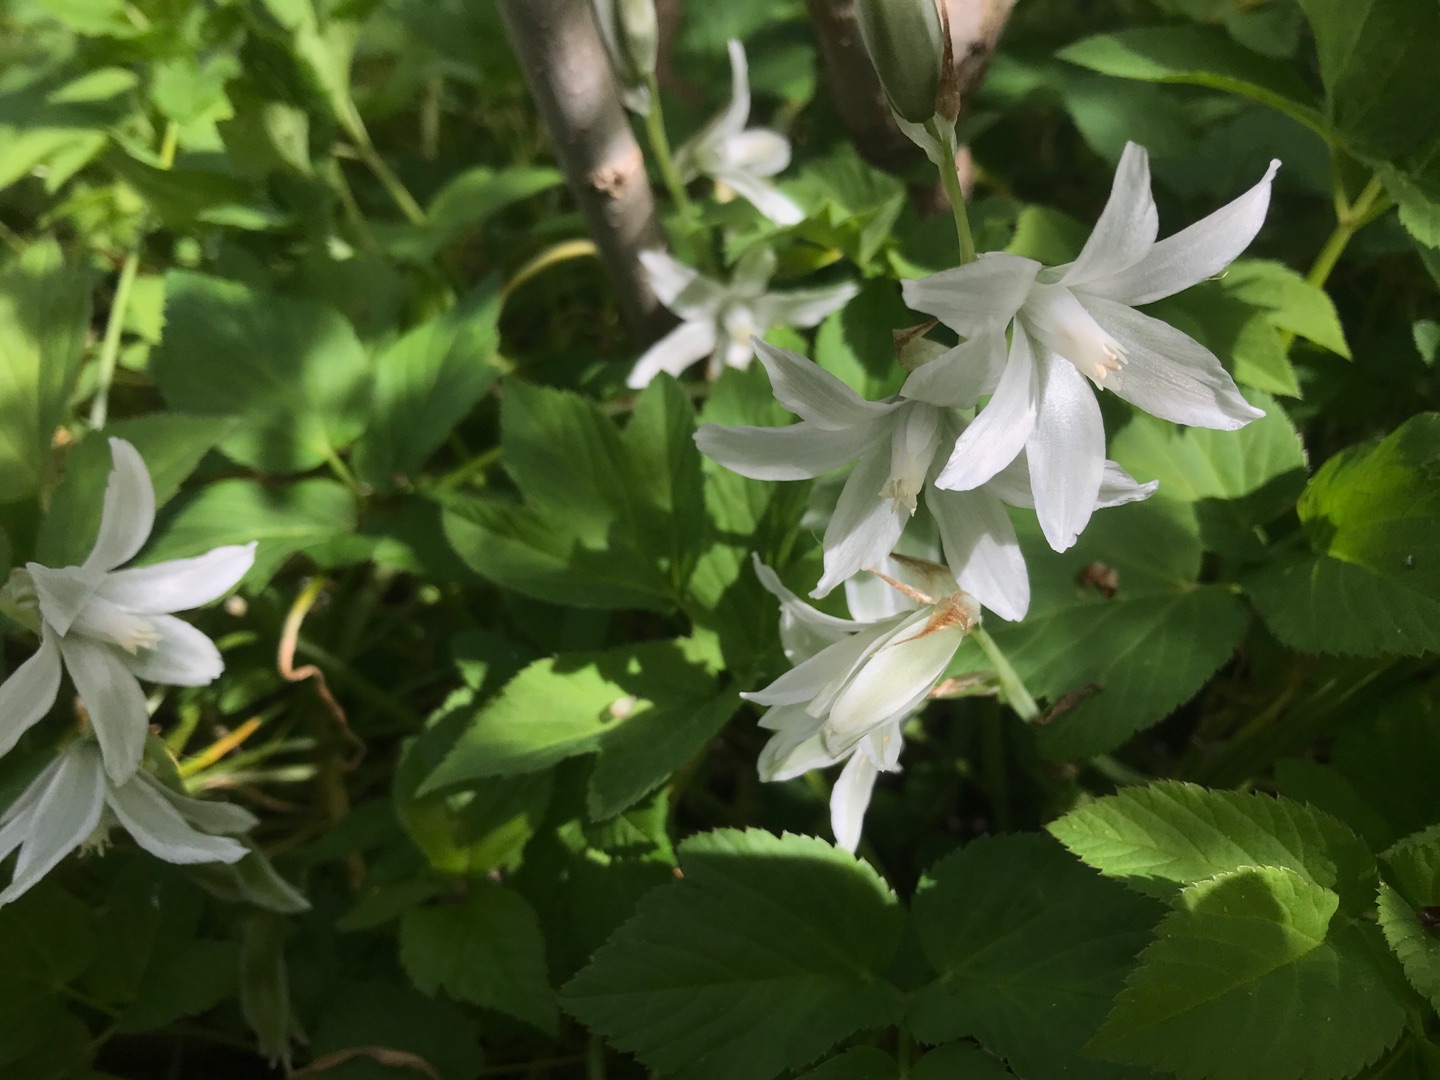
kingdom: Plantae
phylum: Tracheophyta
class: Liliopsida
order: Asparagales
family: Asparagaceae
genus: Ornithogalum
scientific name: Ornithogalum nutans
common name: Nikkende fuglemælk
